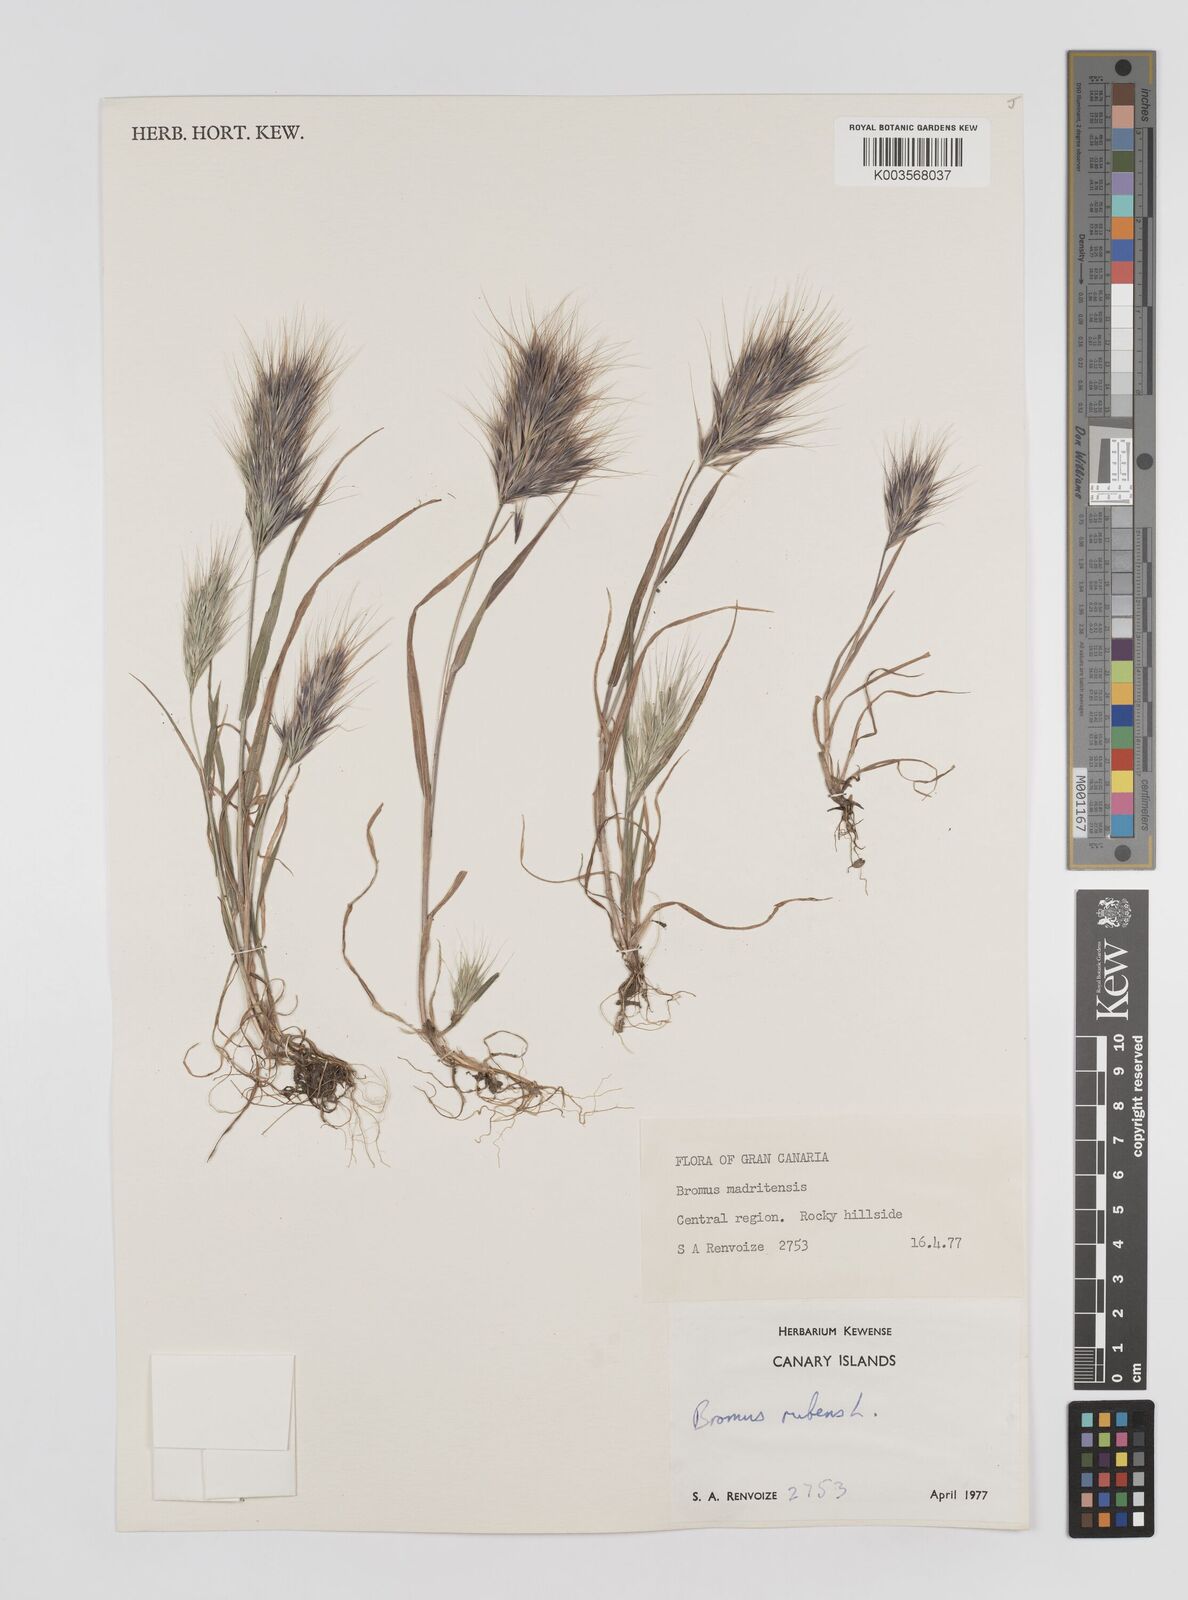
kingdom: Plantae
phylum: Tracheophyta
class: Liliopsida
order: Poales
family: Poaceae
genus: Bromus
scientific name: Bromus
